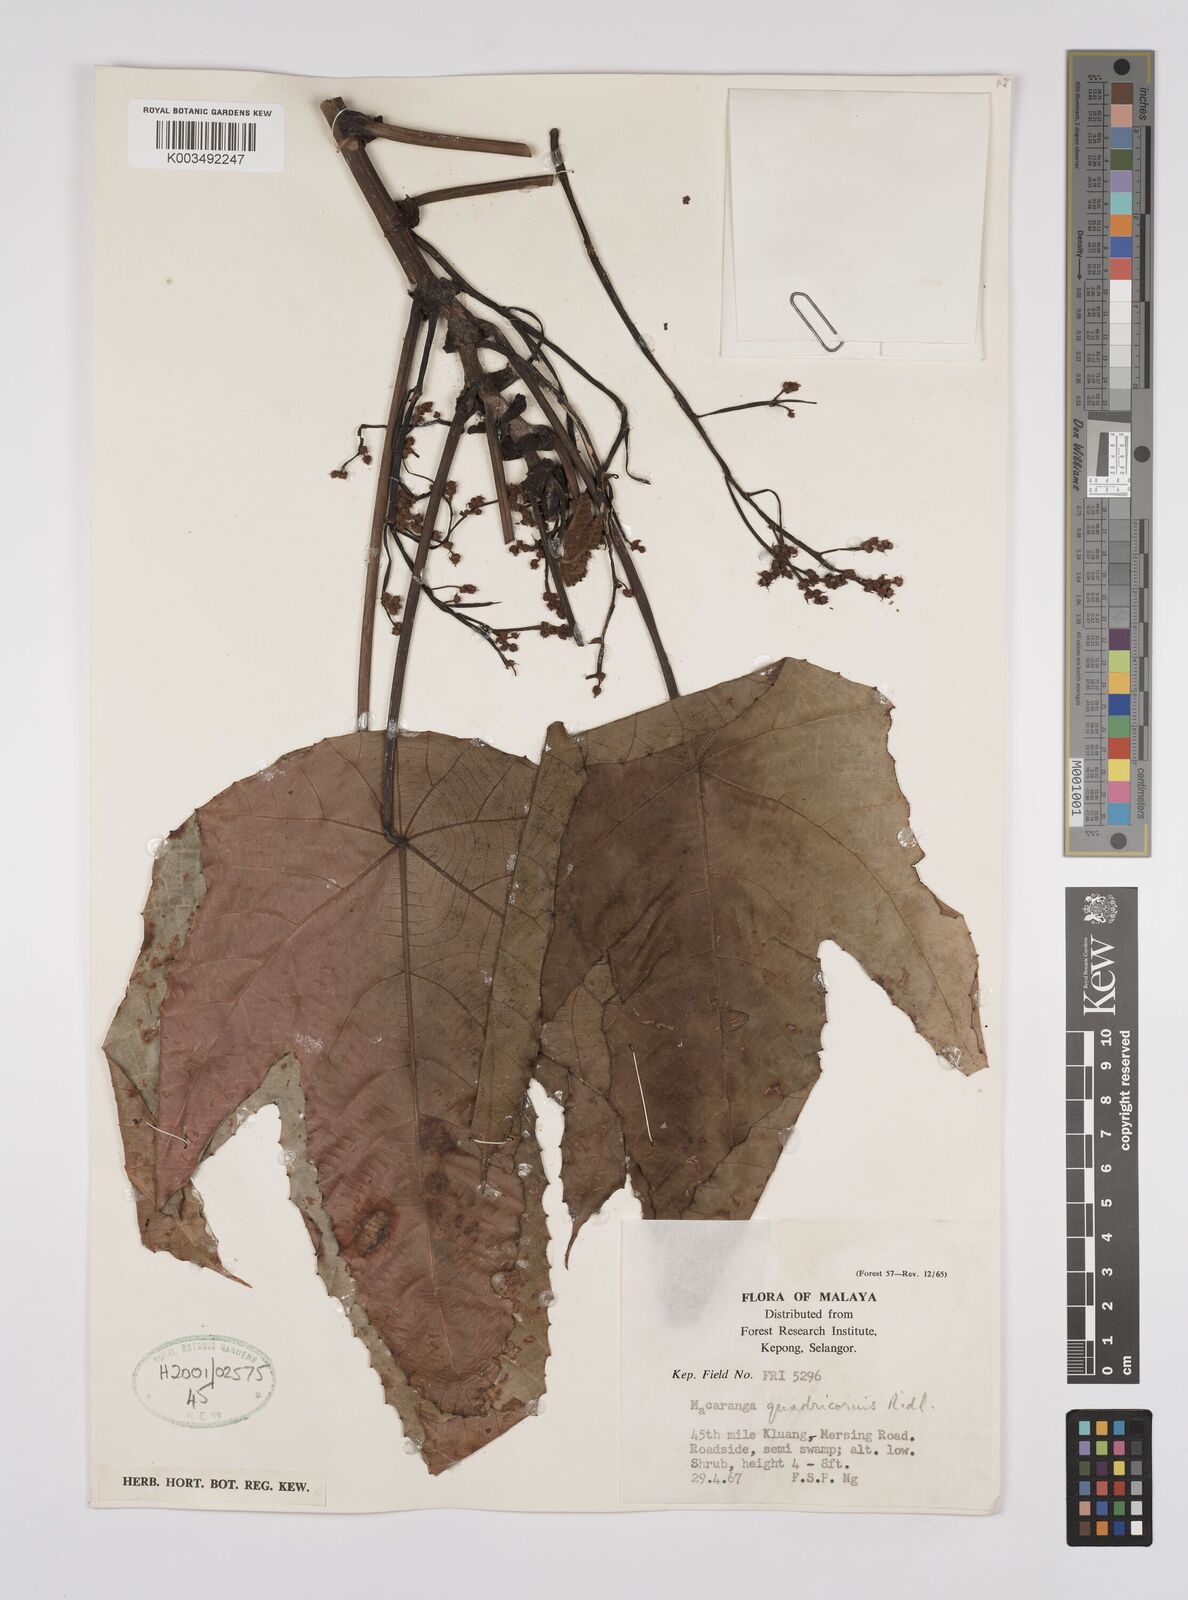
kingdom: Plantae
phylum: Tracheophyta
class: Magnoliopsida
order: Malpighiales
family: Euphorbiaceae
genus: Macaranga
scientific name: Macaranga triloba
